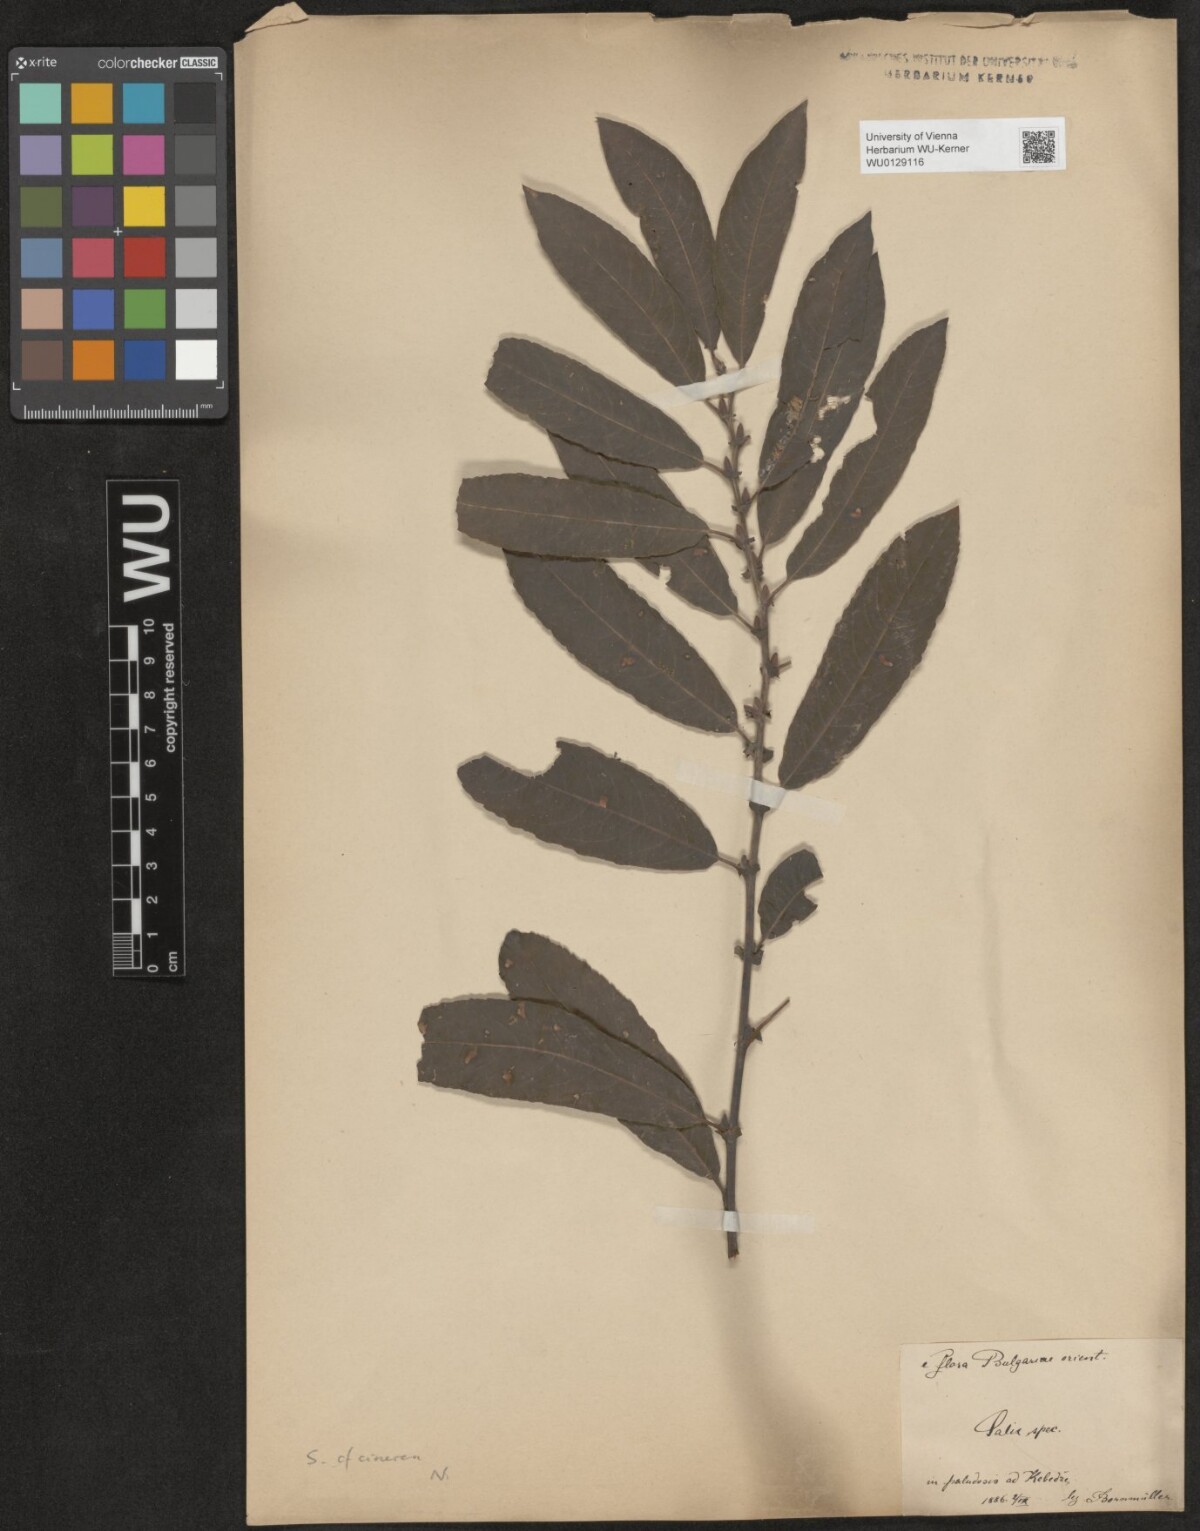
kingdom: Plantae
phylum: Tracheophyta
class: Magnoliopsida
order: Malpighiales
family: Salicaceae
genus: Salix
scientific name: Salix cinerea
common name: Common sallow
